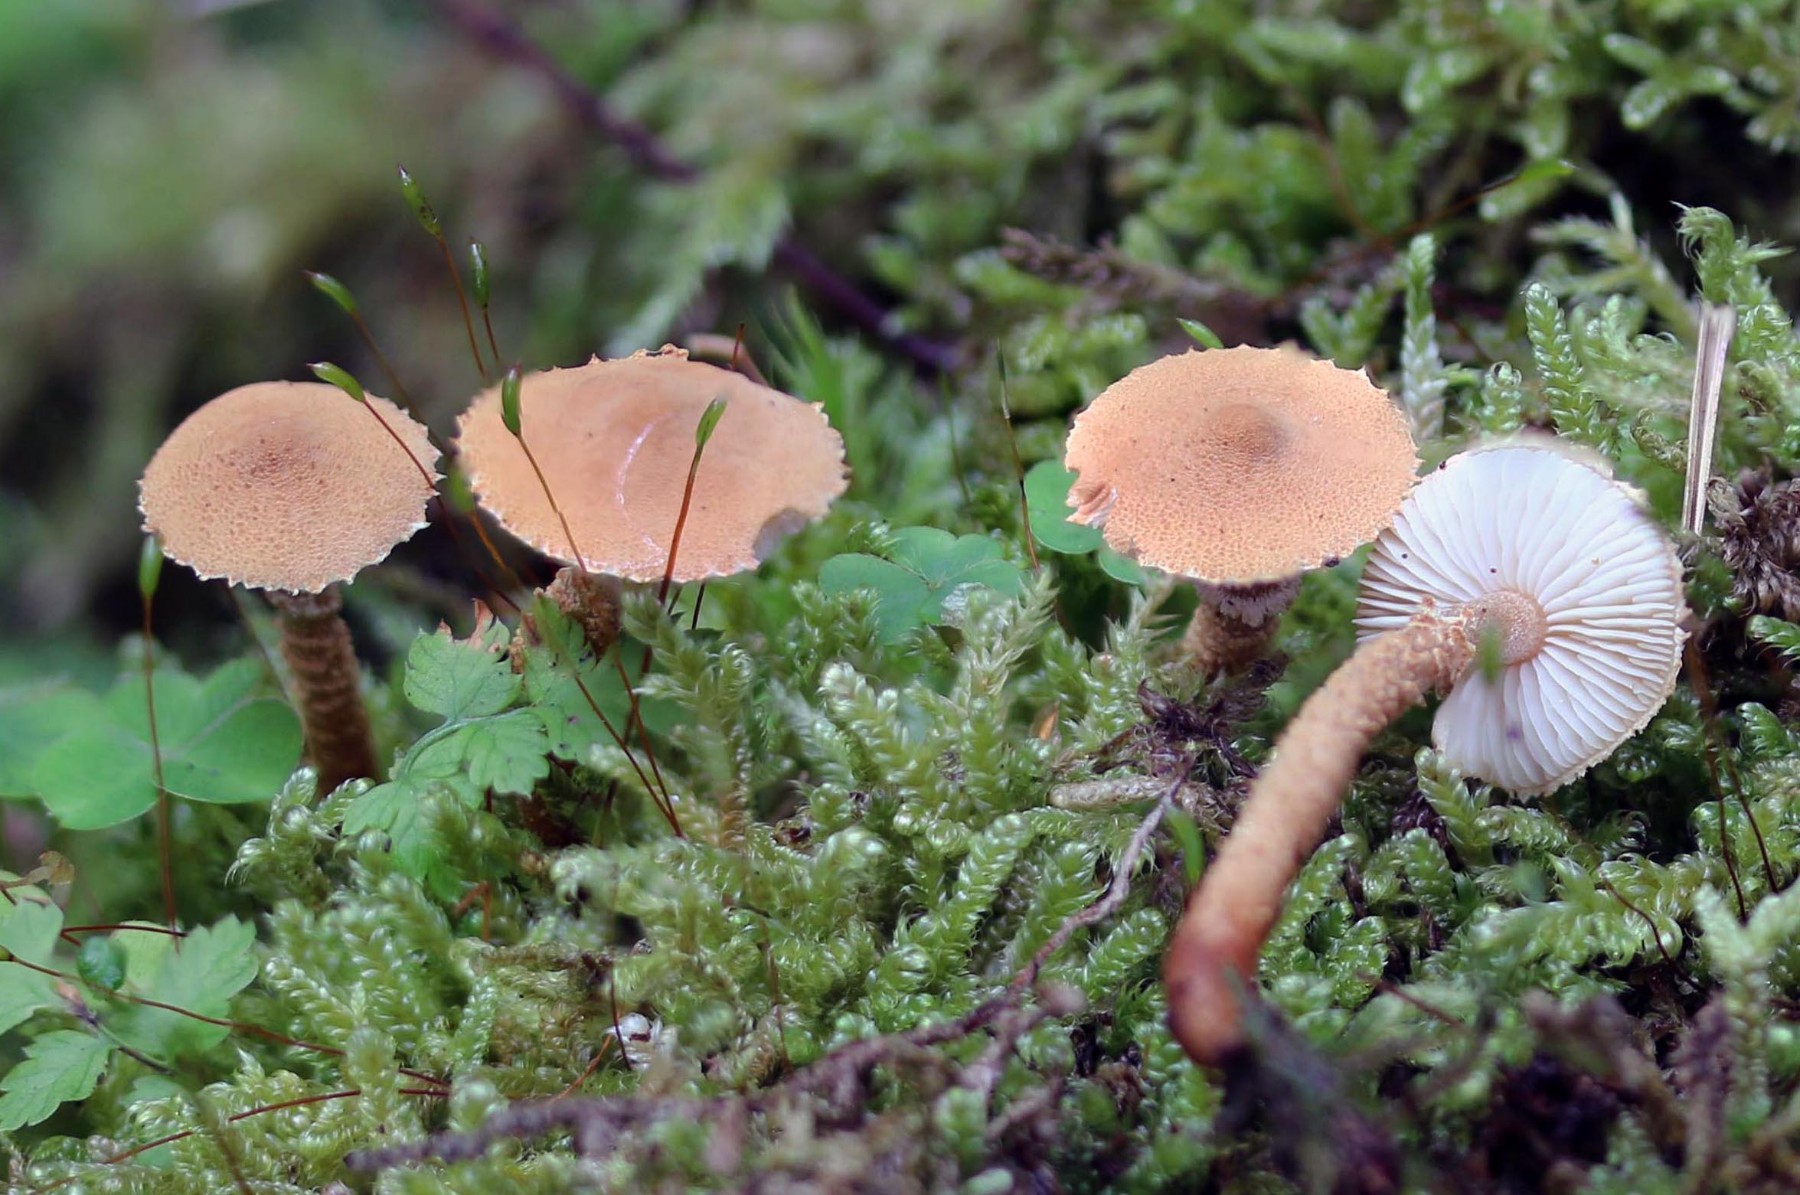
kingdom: Fungi
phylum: Basidiomycota
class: Agaricomycetes
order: Agaricales
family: Tricholomataceae
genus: Cystoderma
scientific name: Cystoderma amianthinum
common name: okkergul grynhat
